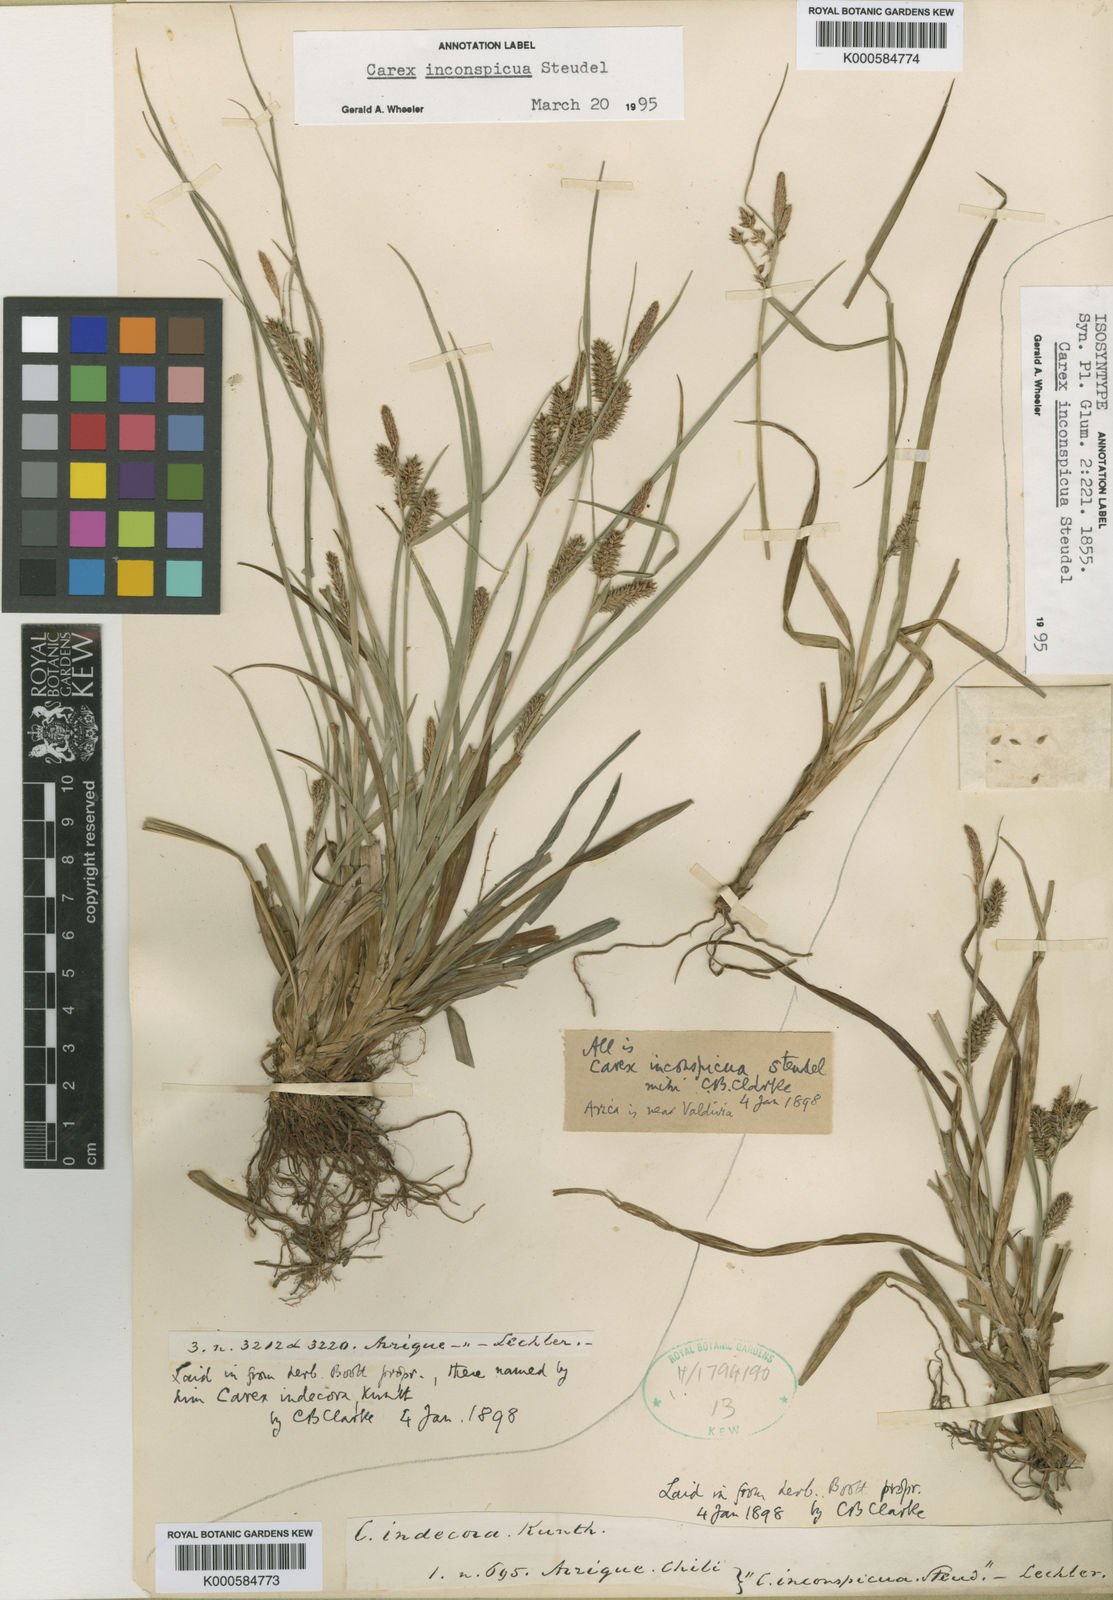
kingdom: Plantae
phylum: Tracheophyta
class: Liliopsida
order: Poales
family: Cyperaceae
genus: Carex
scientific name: Carex fuscula
